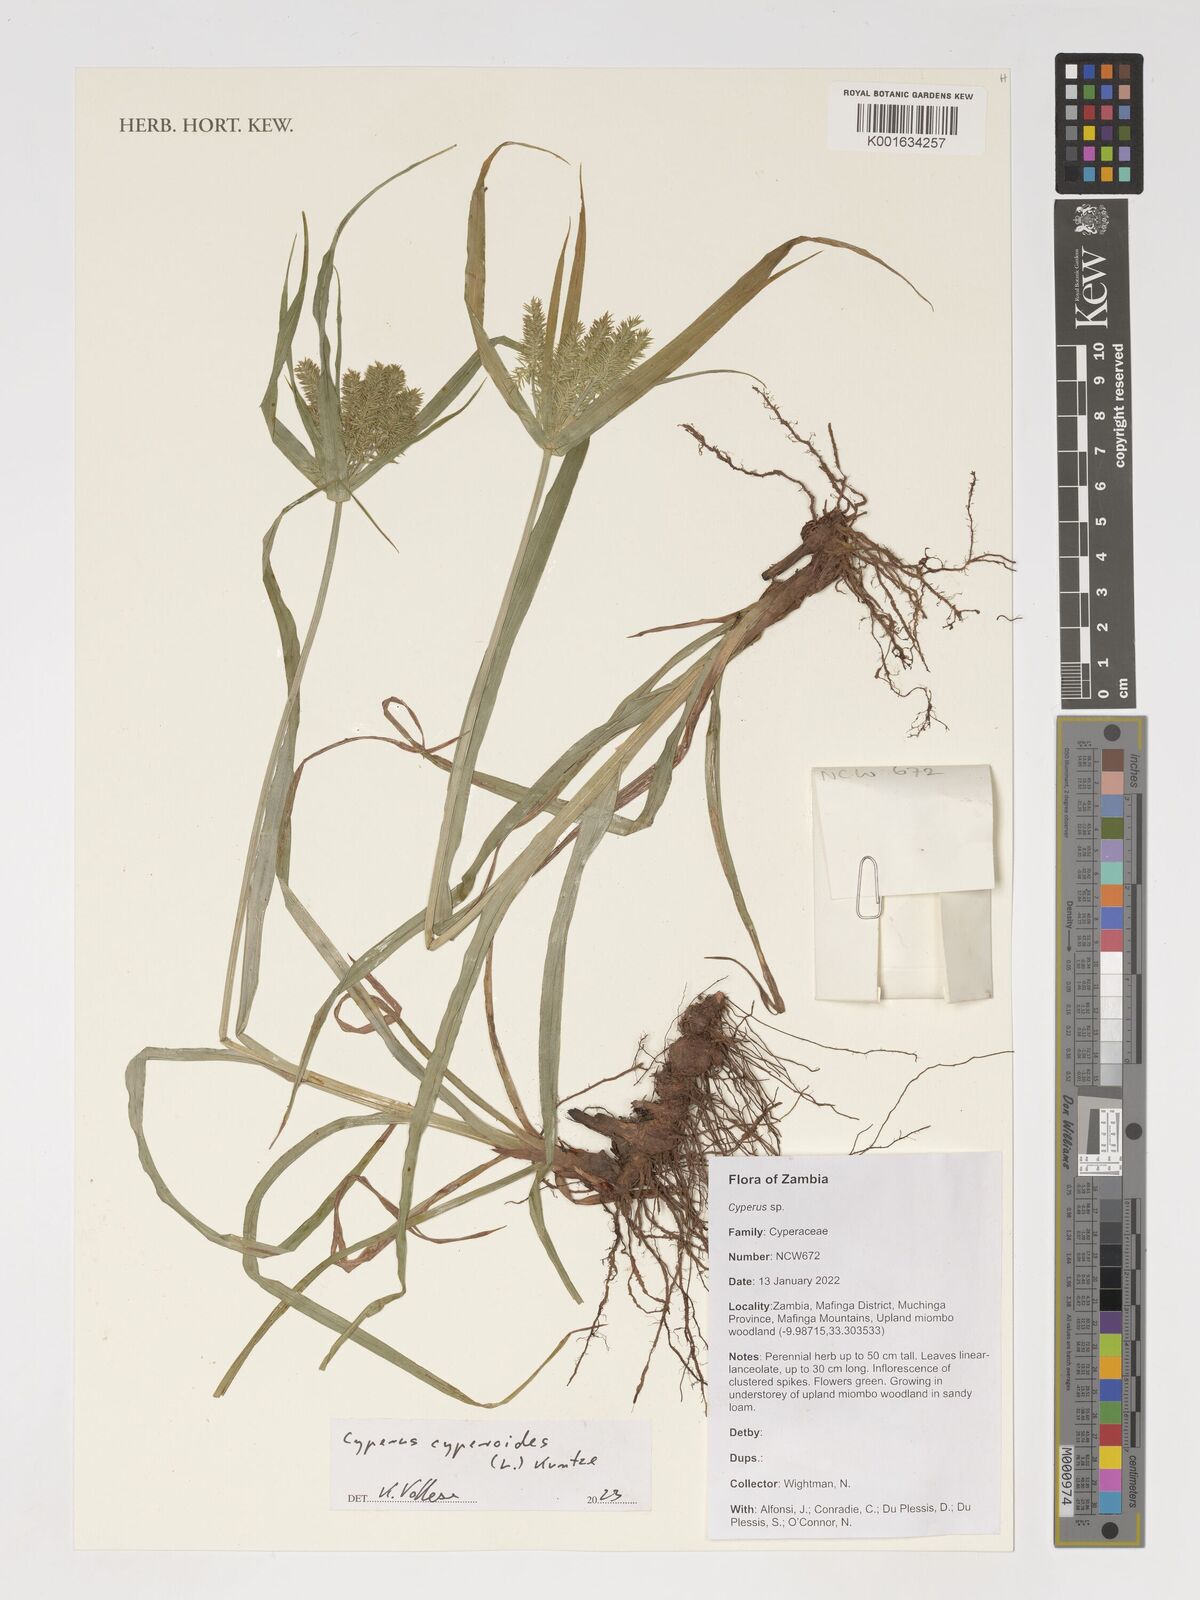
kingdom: Plantae
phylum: Tracheophyta
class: Liliopsida
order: Poales
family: Cyperaceae
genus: Cyperus
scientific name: Cyperus cyperoides
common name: Pacific island flat sedge
